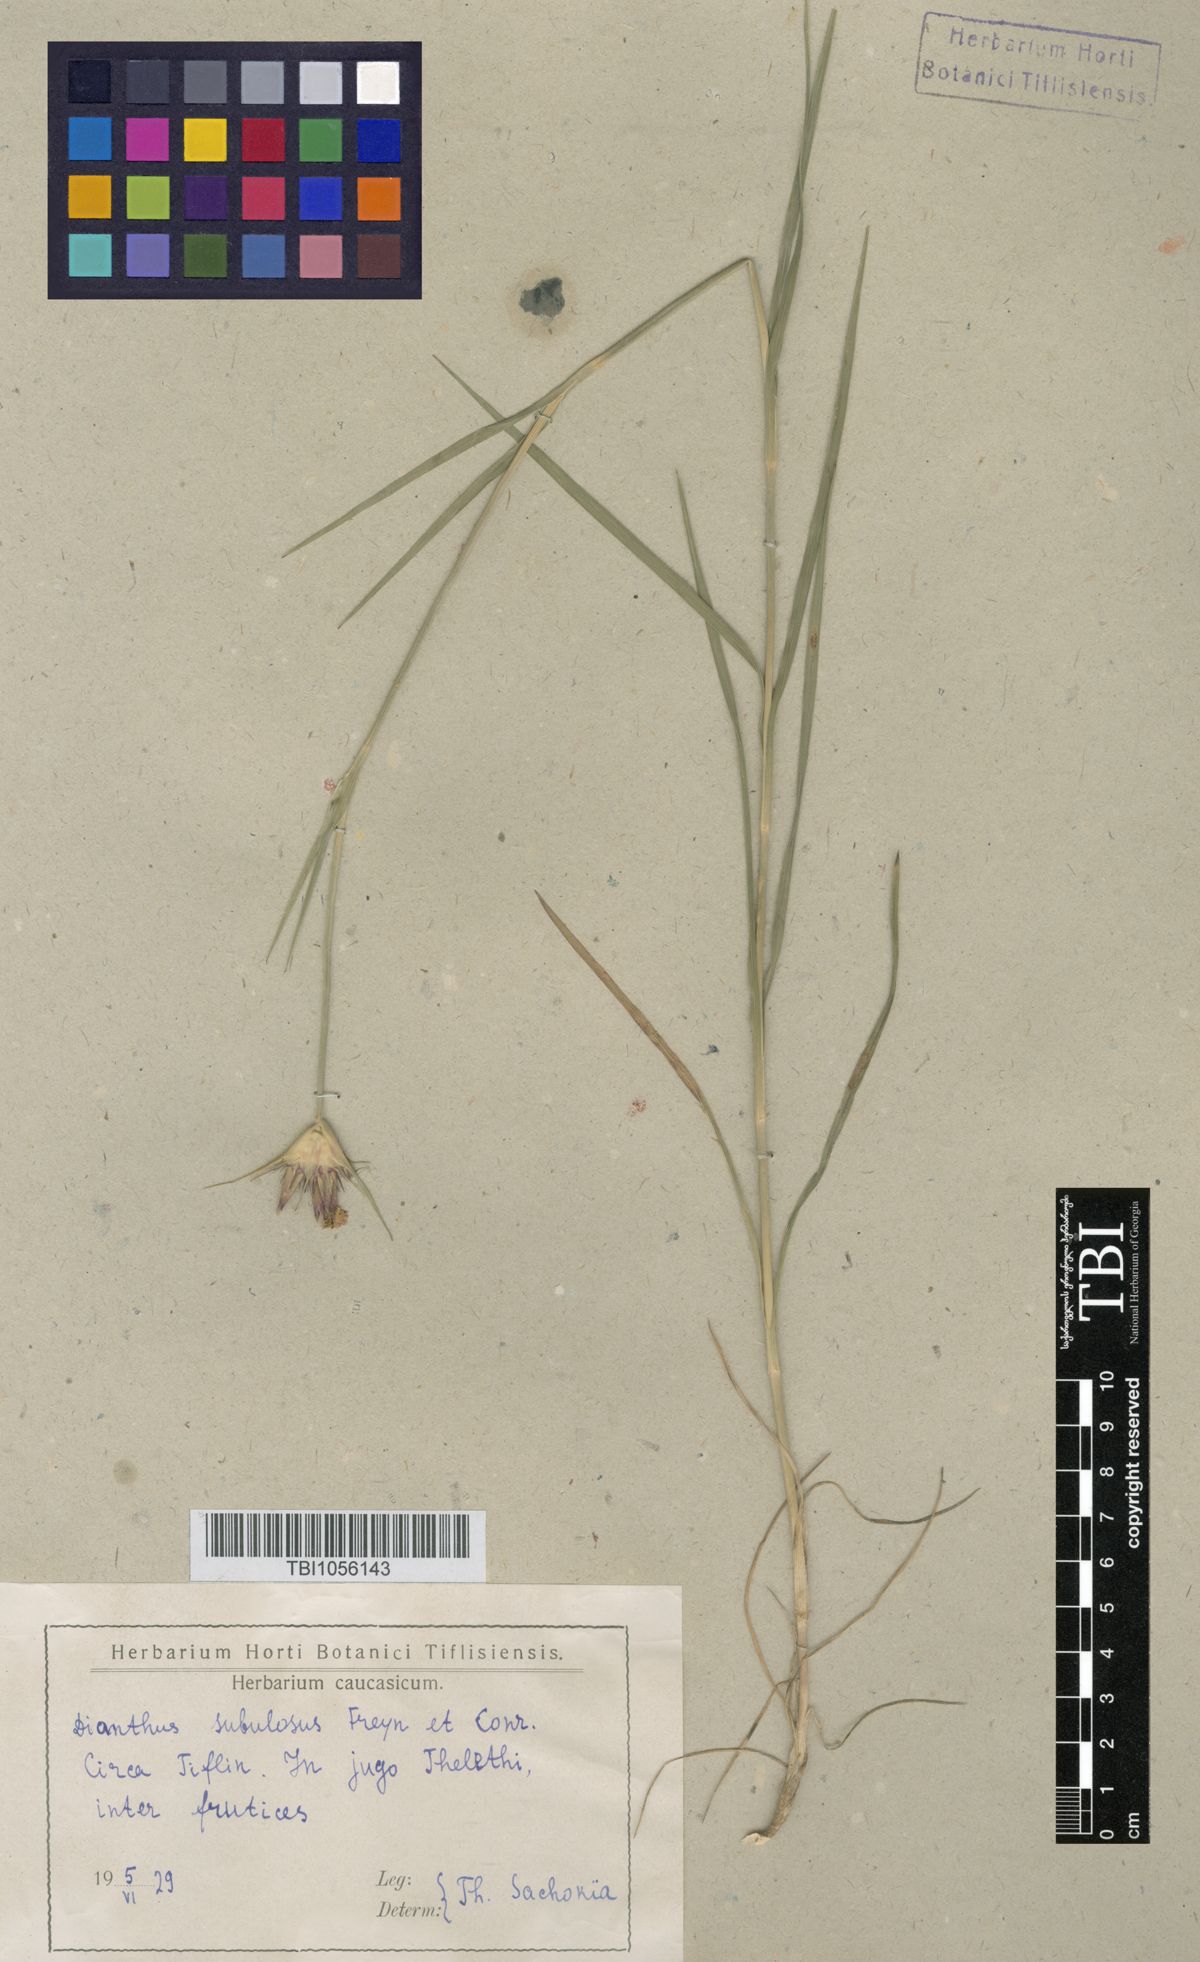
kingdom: Plantae
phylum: Tracheophyta
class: Magnoliopsida
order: Caryophyllales
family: Caryophyllaceae
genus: Dianthus
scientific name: Dianthus subulosus
